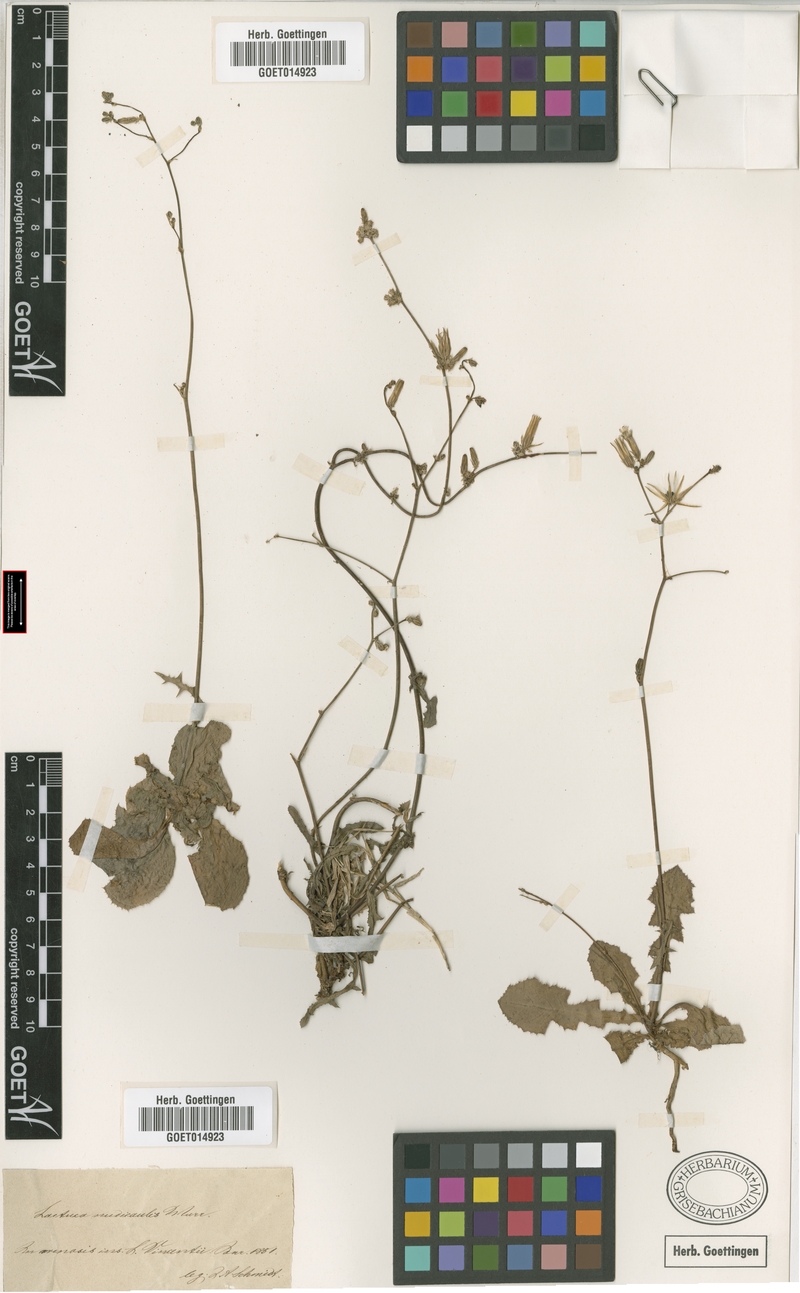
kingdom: Plantae
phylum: Tracheophyta
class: Magnoliopsida
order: Asterales
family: Asteraceae
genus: Launaea
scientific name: Launaea nudicaulis
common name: Naked launaea
